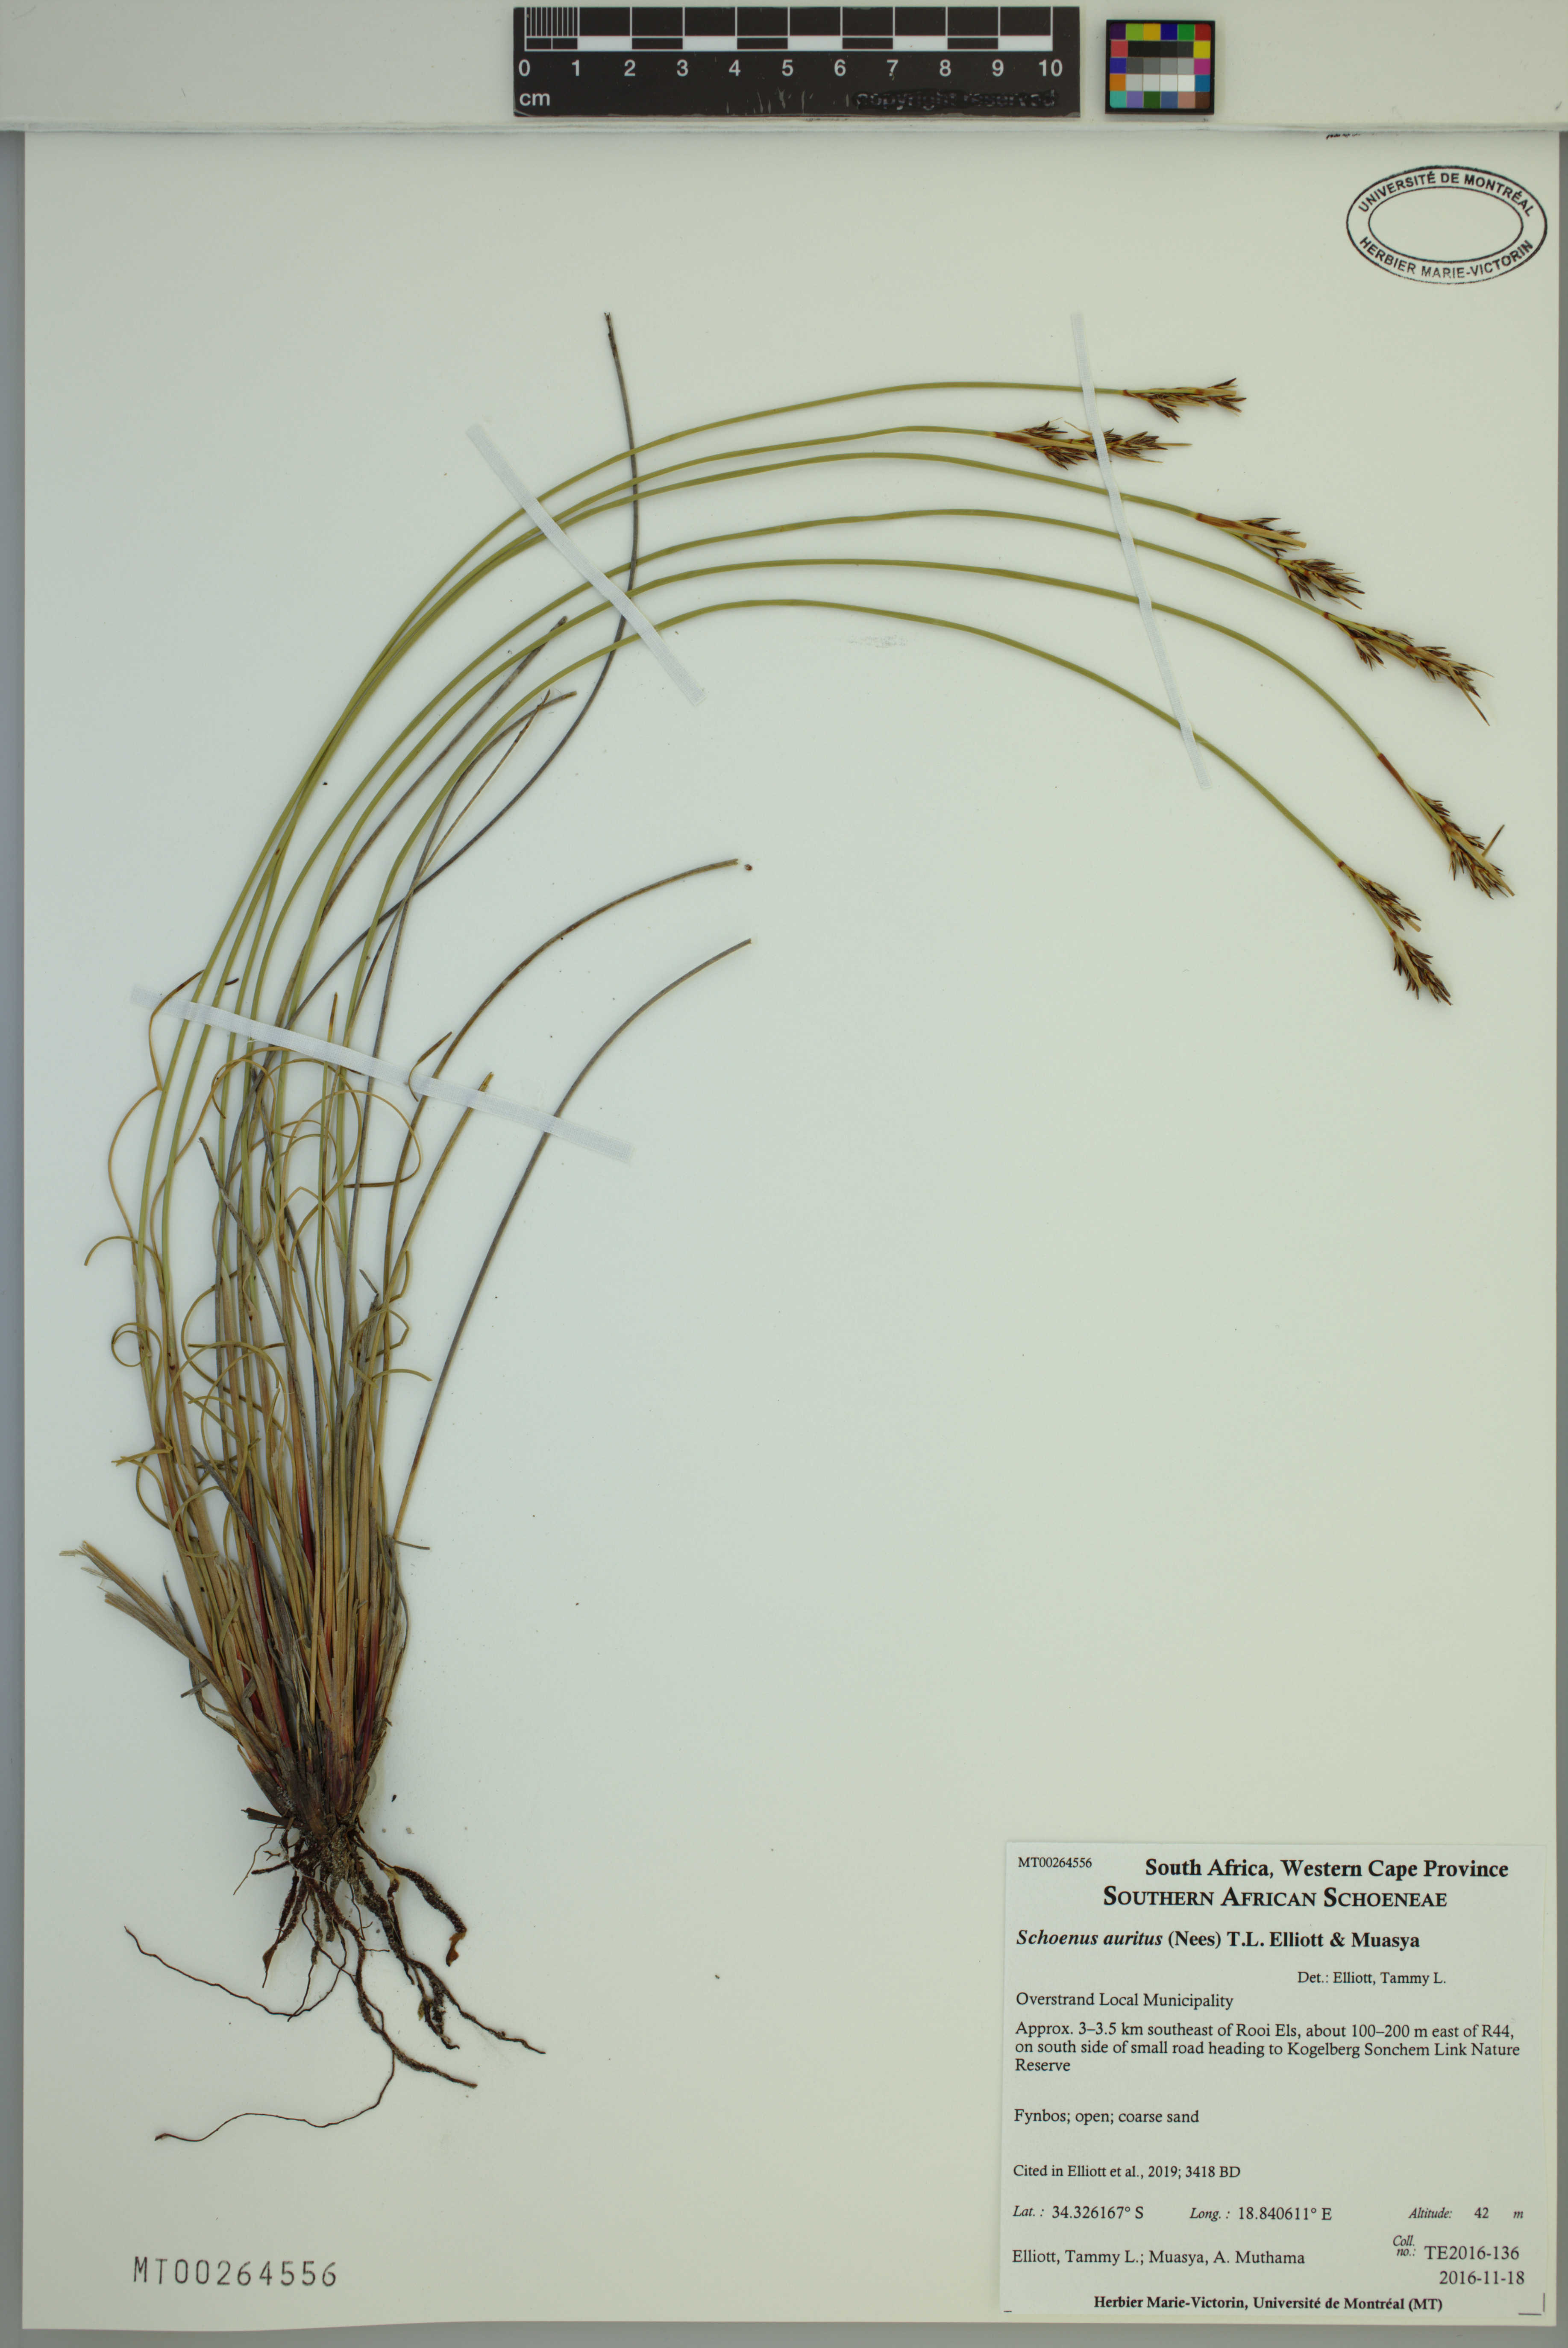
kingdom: Plantae
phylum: Tracheophyta
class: Liliopsida
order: Poales
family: Cyperaceae
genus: Schoenus
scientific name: Schoenus auritus
